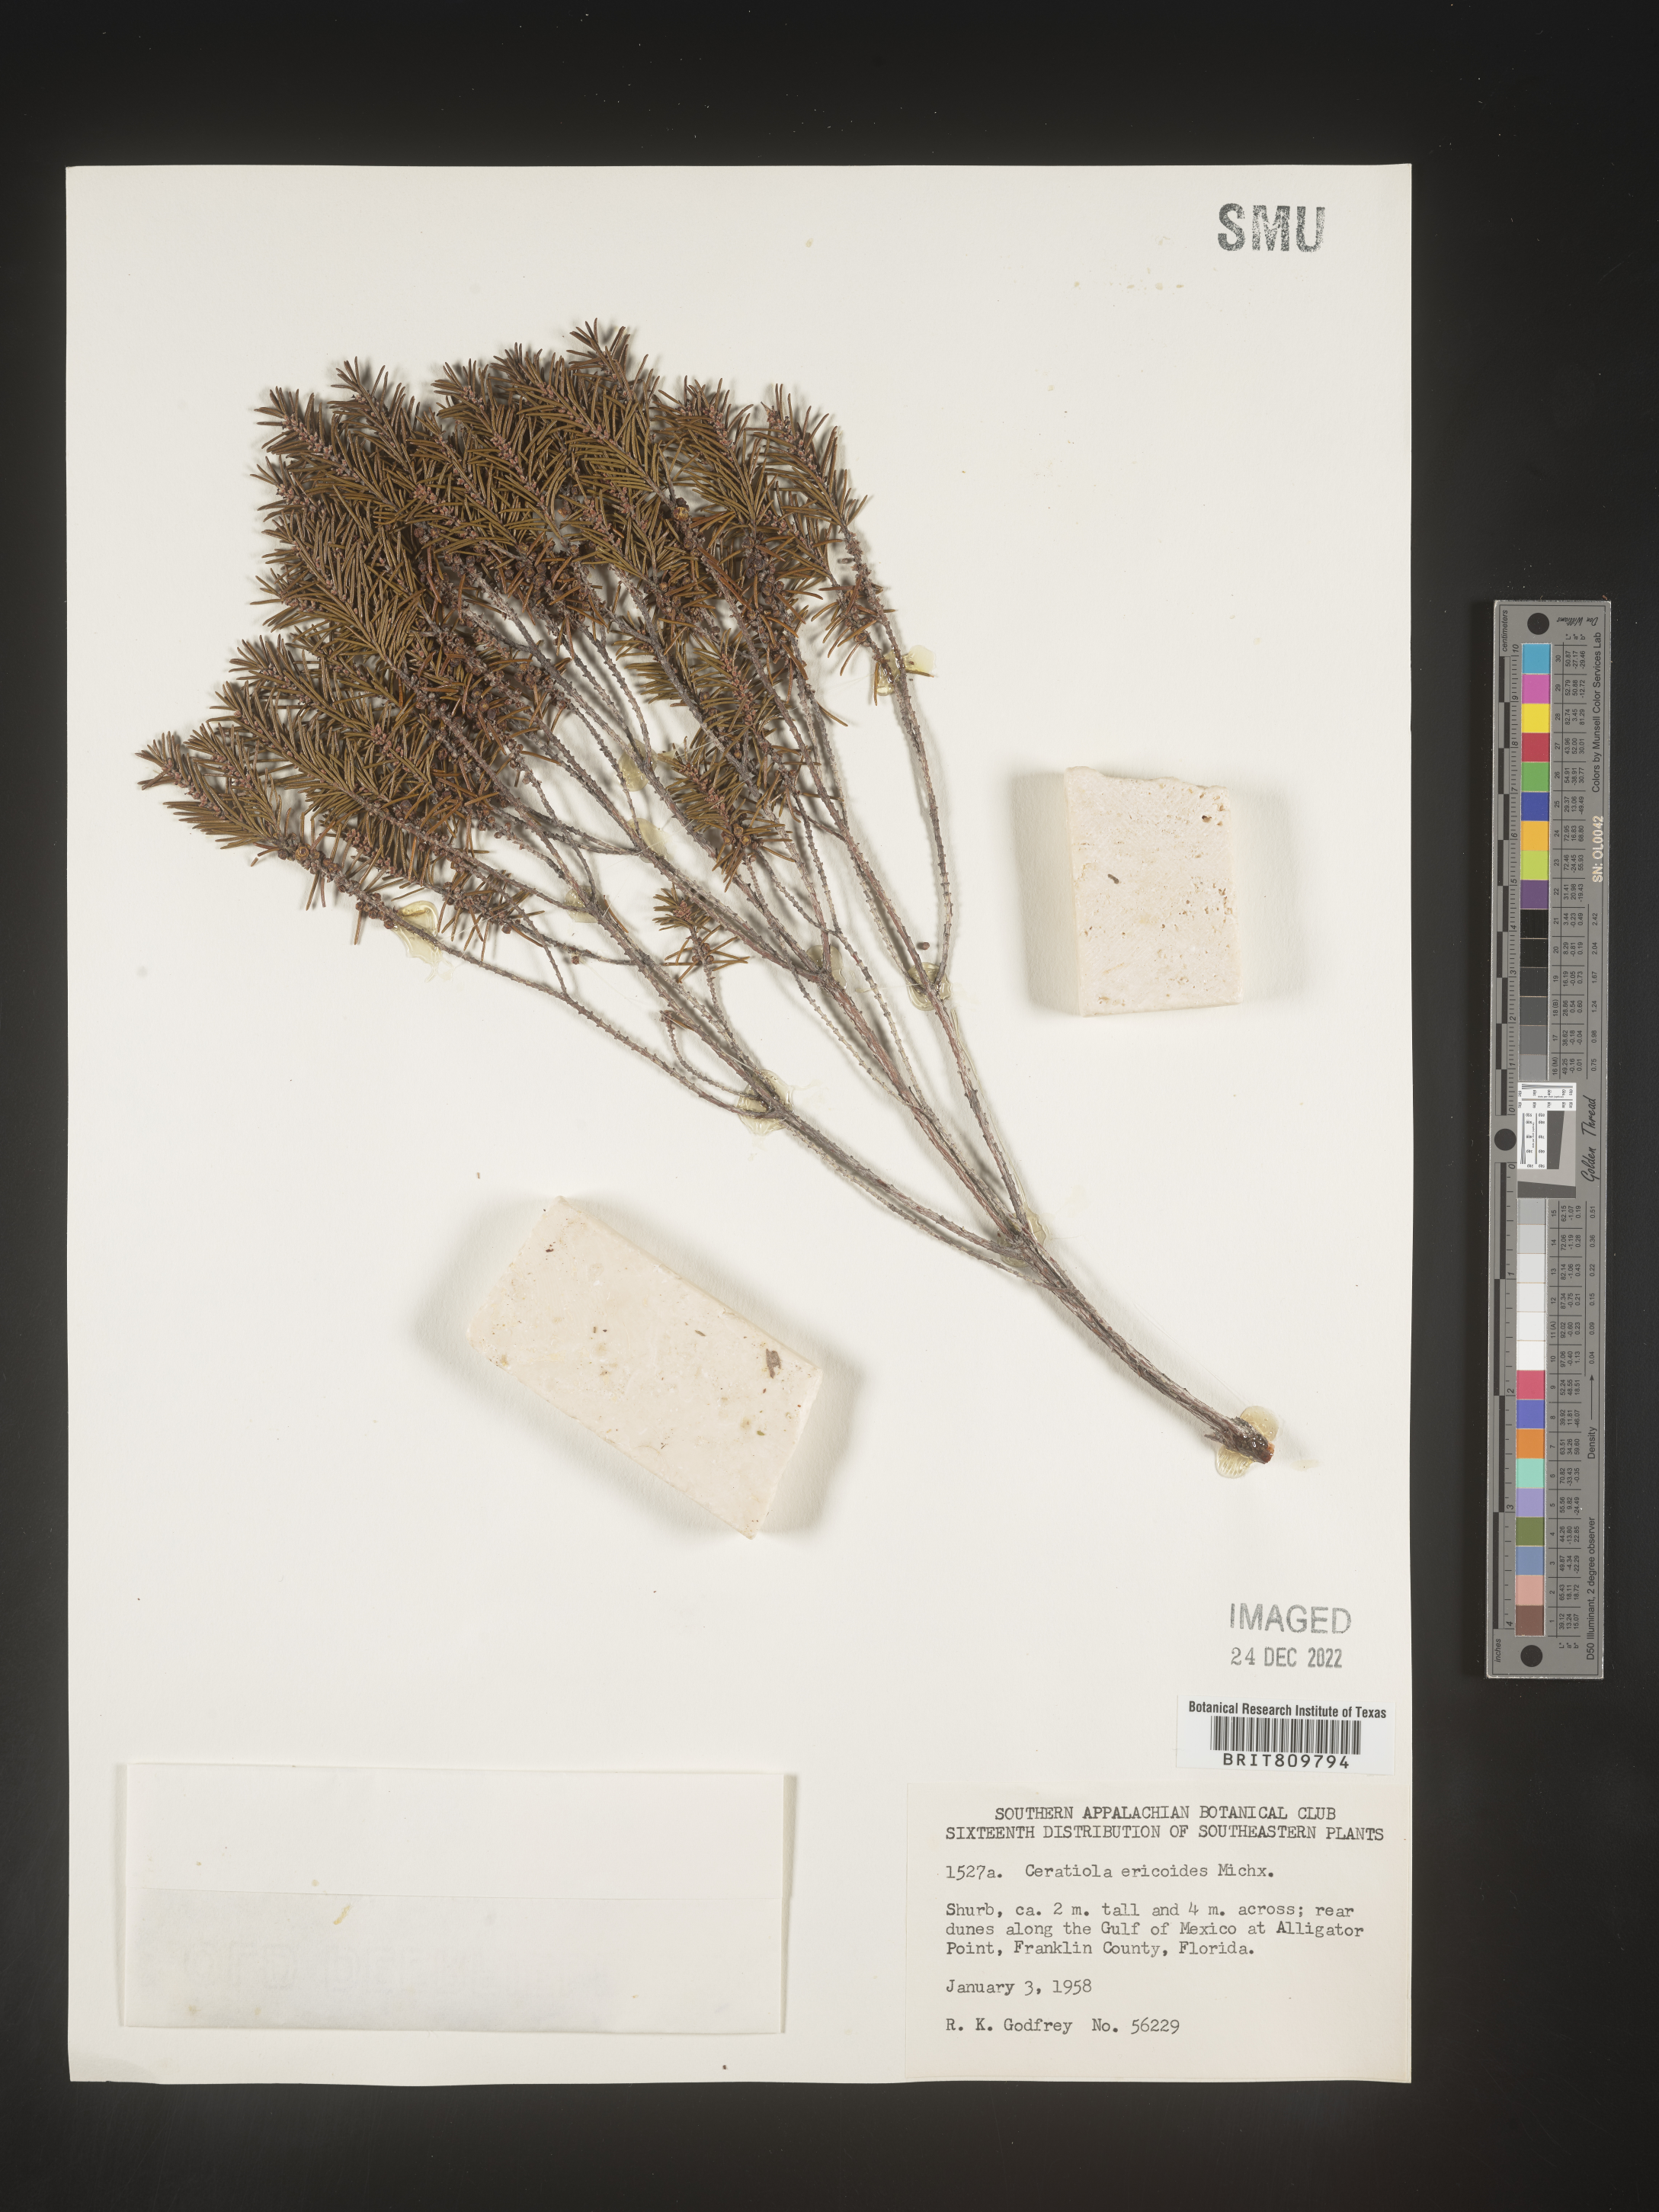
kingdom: Plantae
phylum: Tracheophyta
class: Magnoliopsida
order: Ericales
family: Ericaceae
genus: Ceratiola
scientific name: Ceratiola ericoides
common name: Sandhill-rosemary
